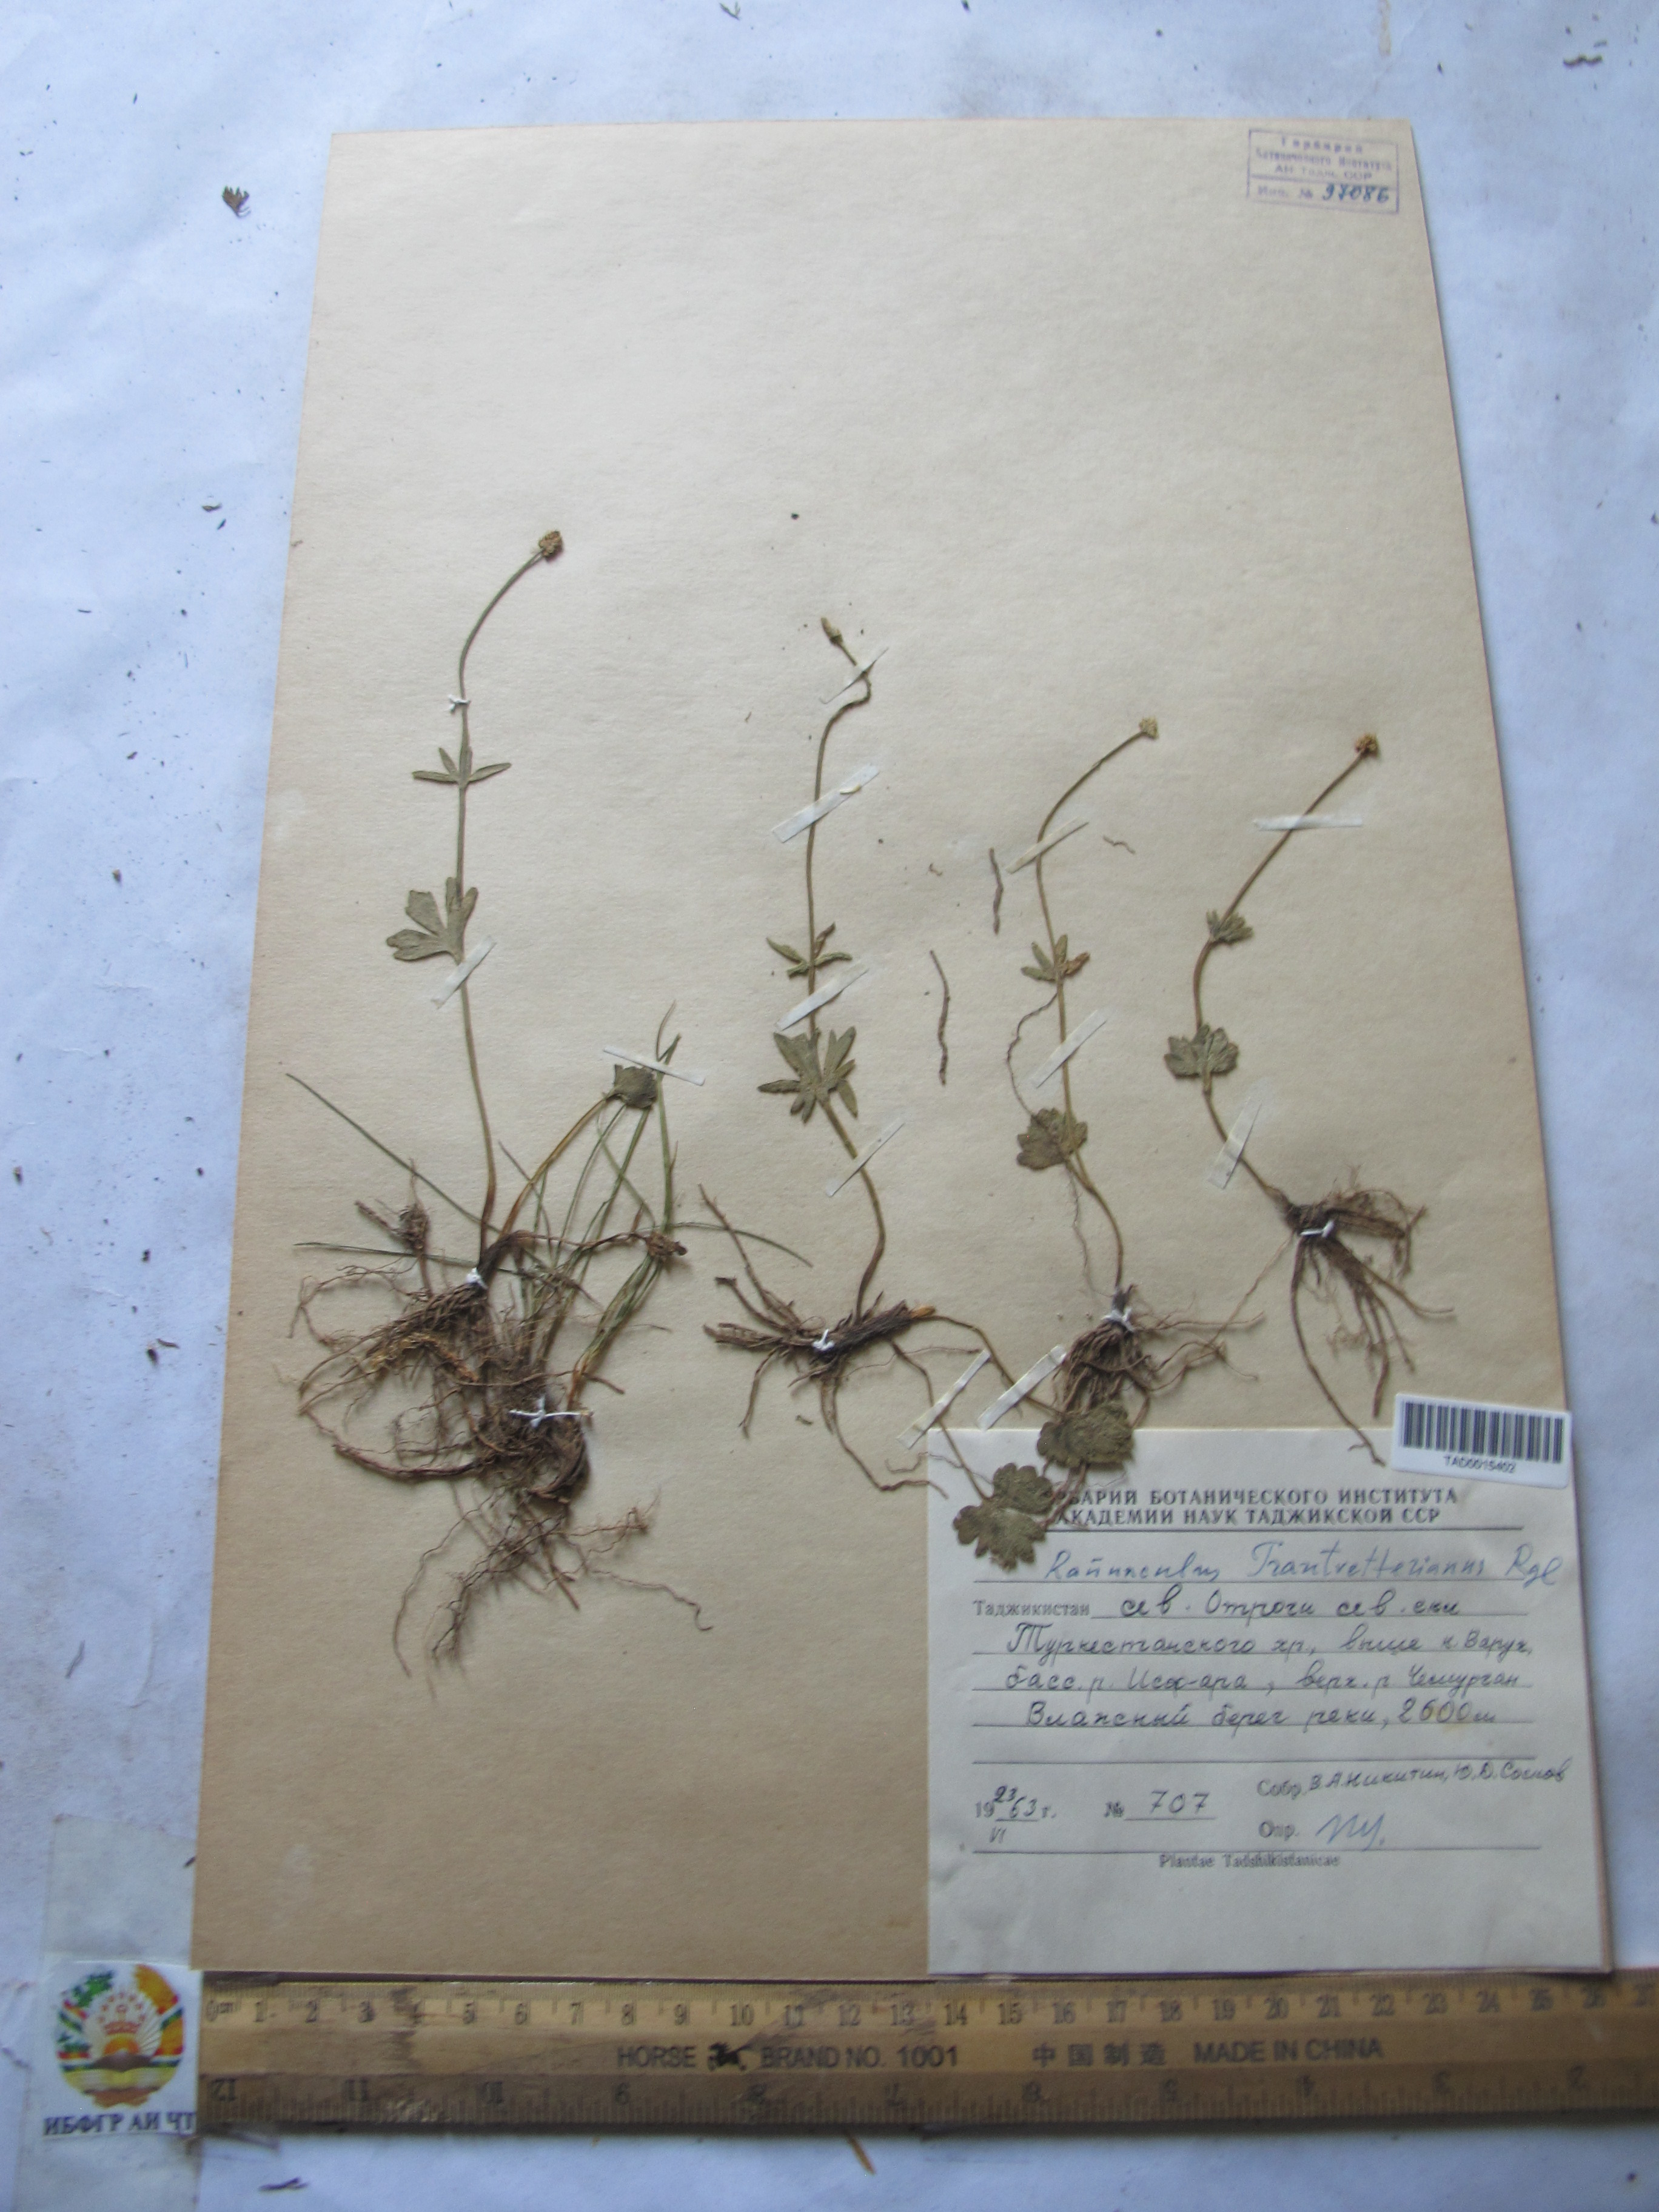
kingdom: Plantae
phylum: Tracheophyta
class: Magnoliopsida
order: Ranunculales
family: Ranunculaceae
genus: Ranunculus
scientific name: Ranunculus songaricus
